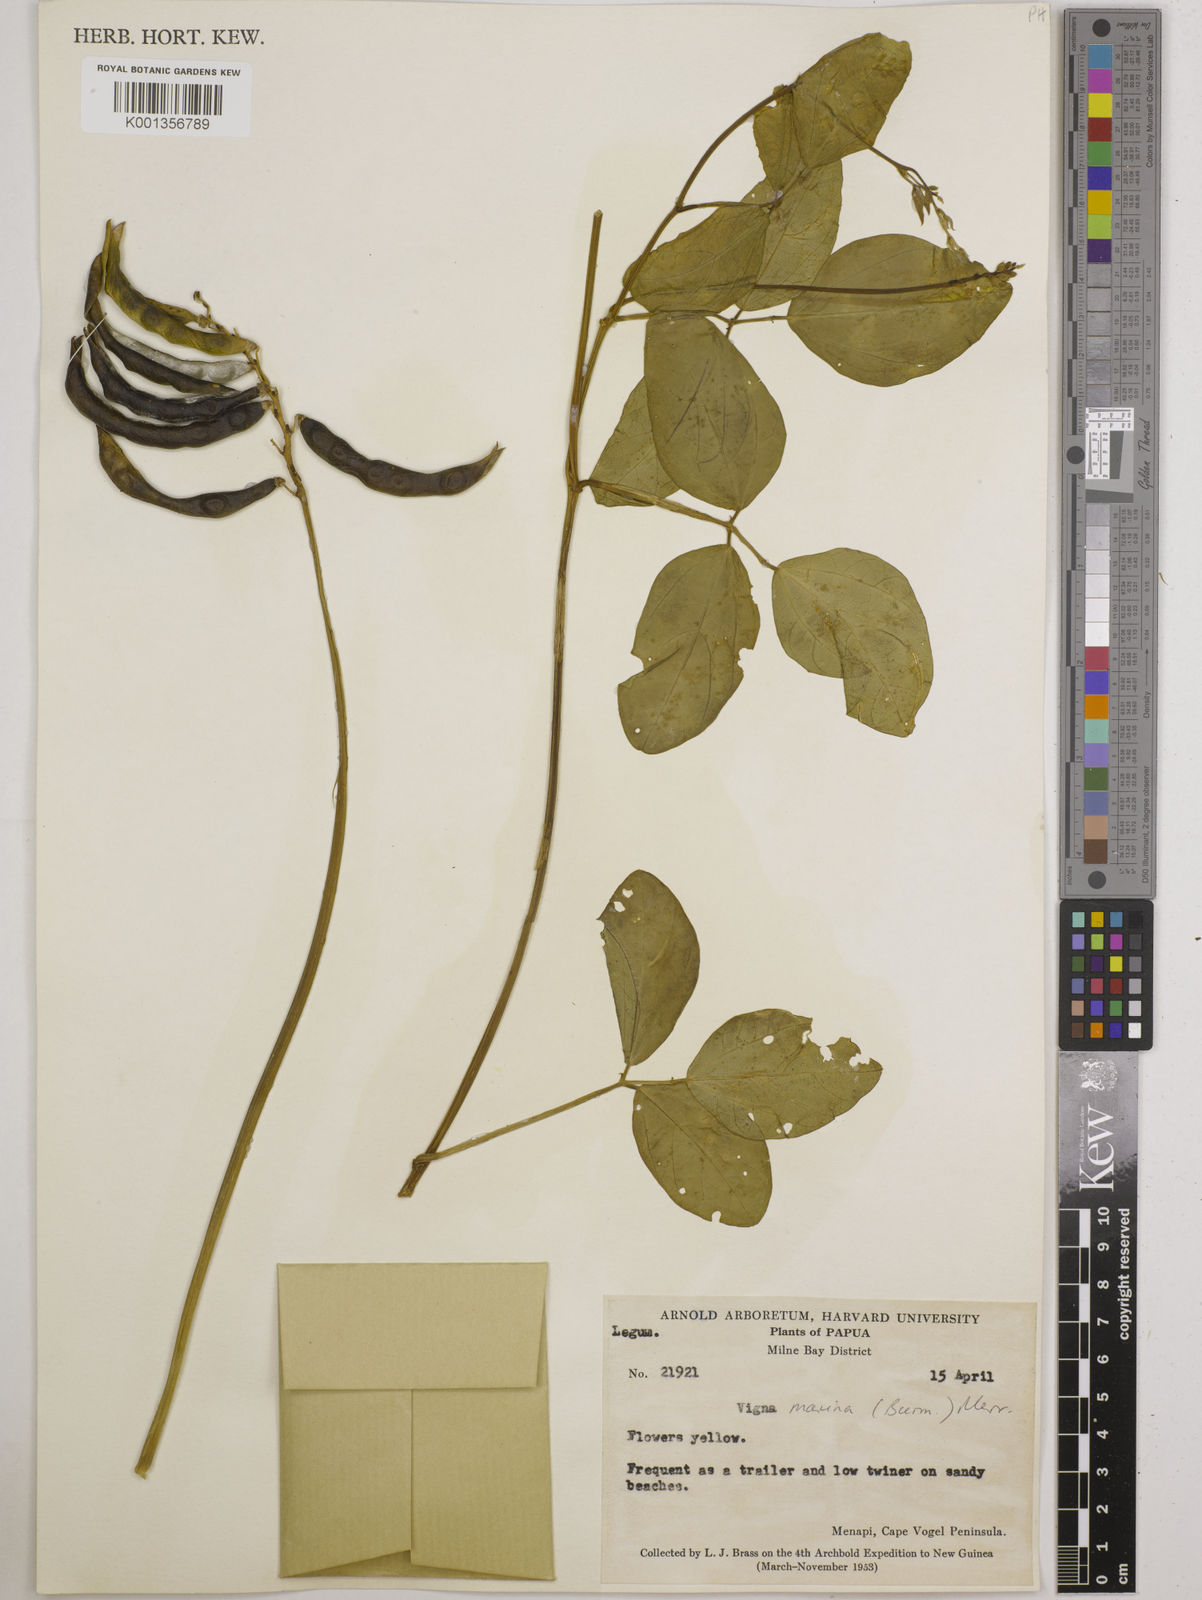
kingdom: Plantae
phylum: Tracheophyta
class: Magnoliopsida
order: Fabales
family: Fabaceae
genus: Vigna
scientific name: Vigna marina
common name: Dune-bean
